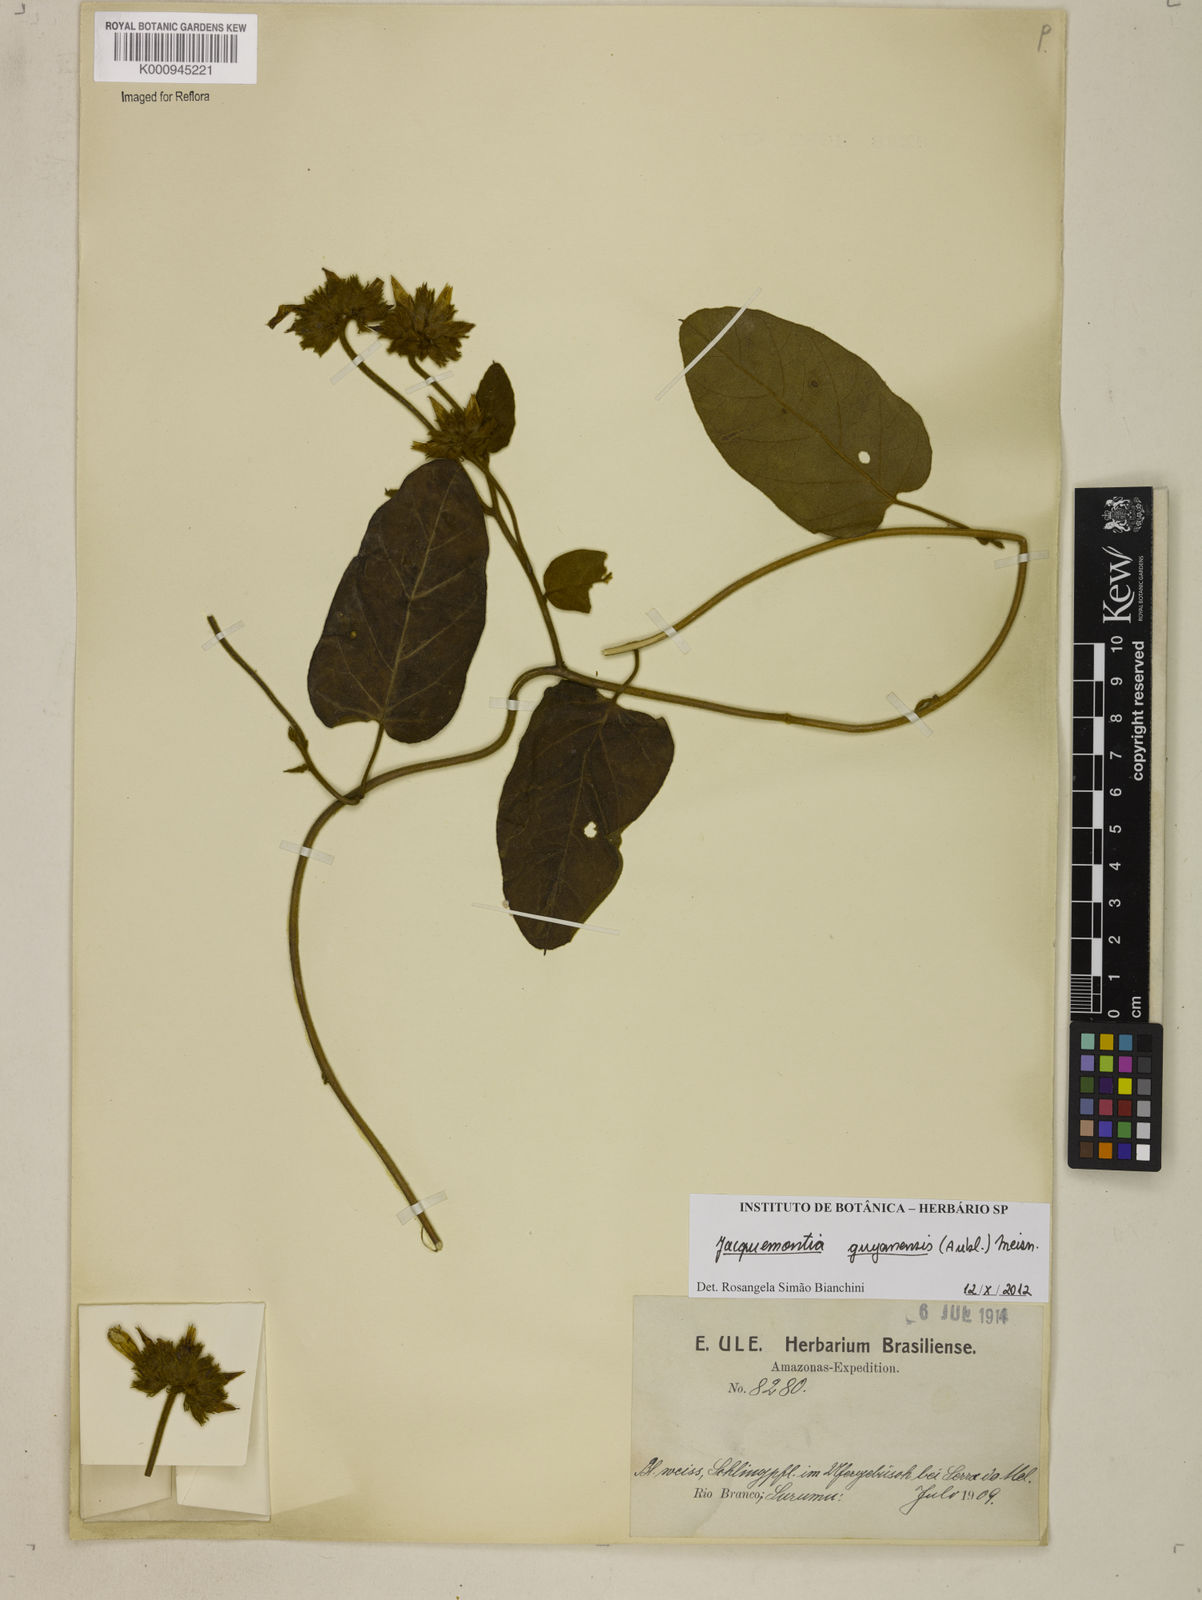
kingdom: Plantae
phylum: Tracheophyta
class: Magnoliopsida
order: Solanales
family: Convolvulaceae
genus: Jacquemontia
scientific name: Jacquemontia guyanensis
